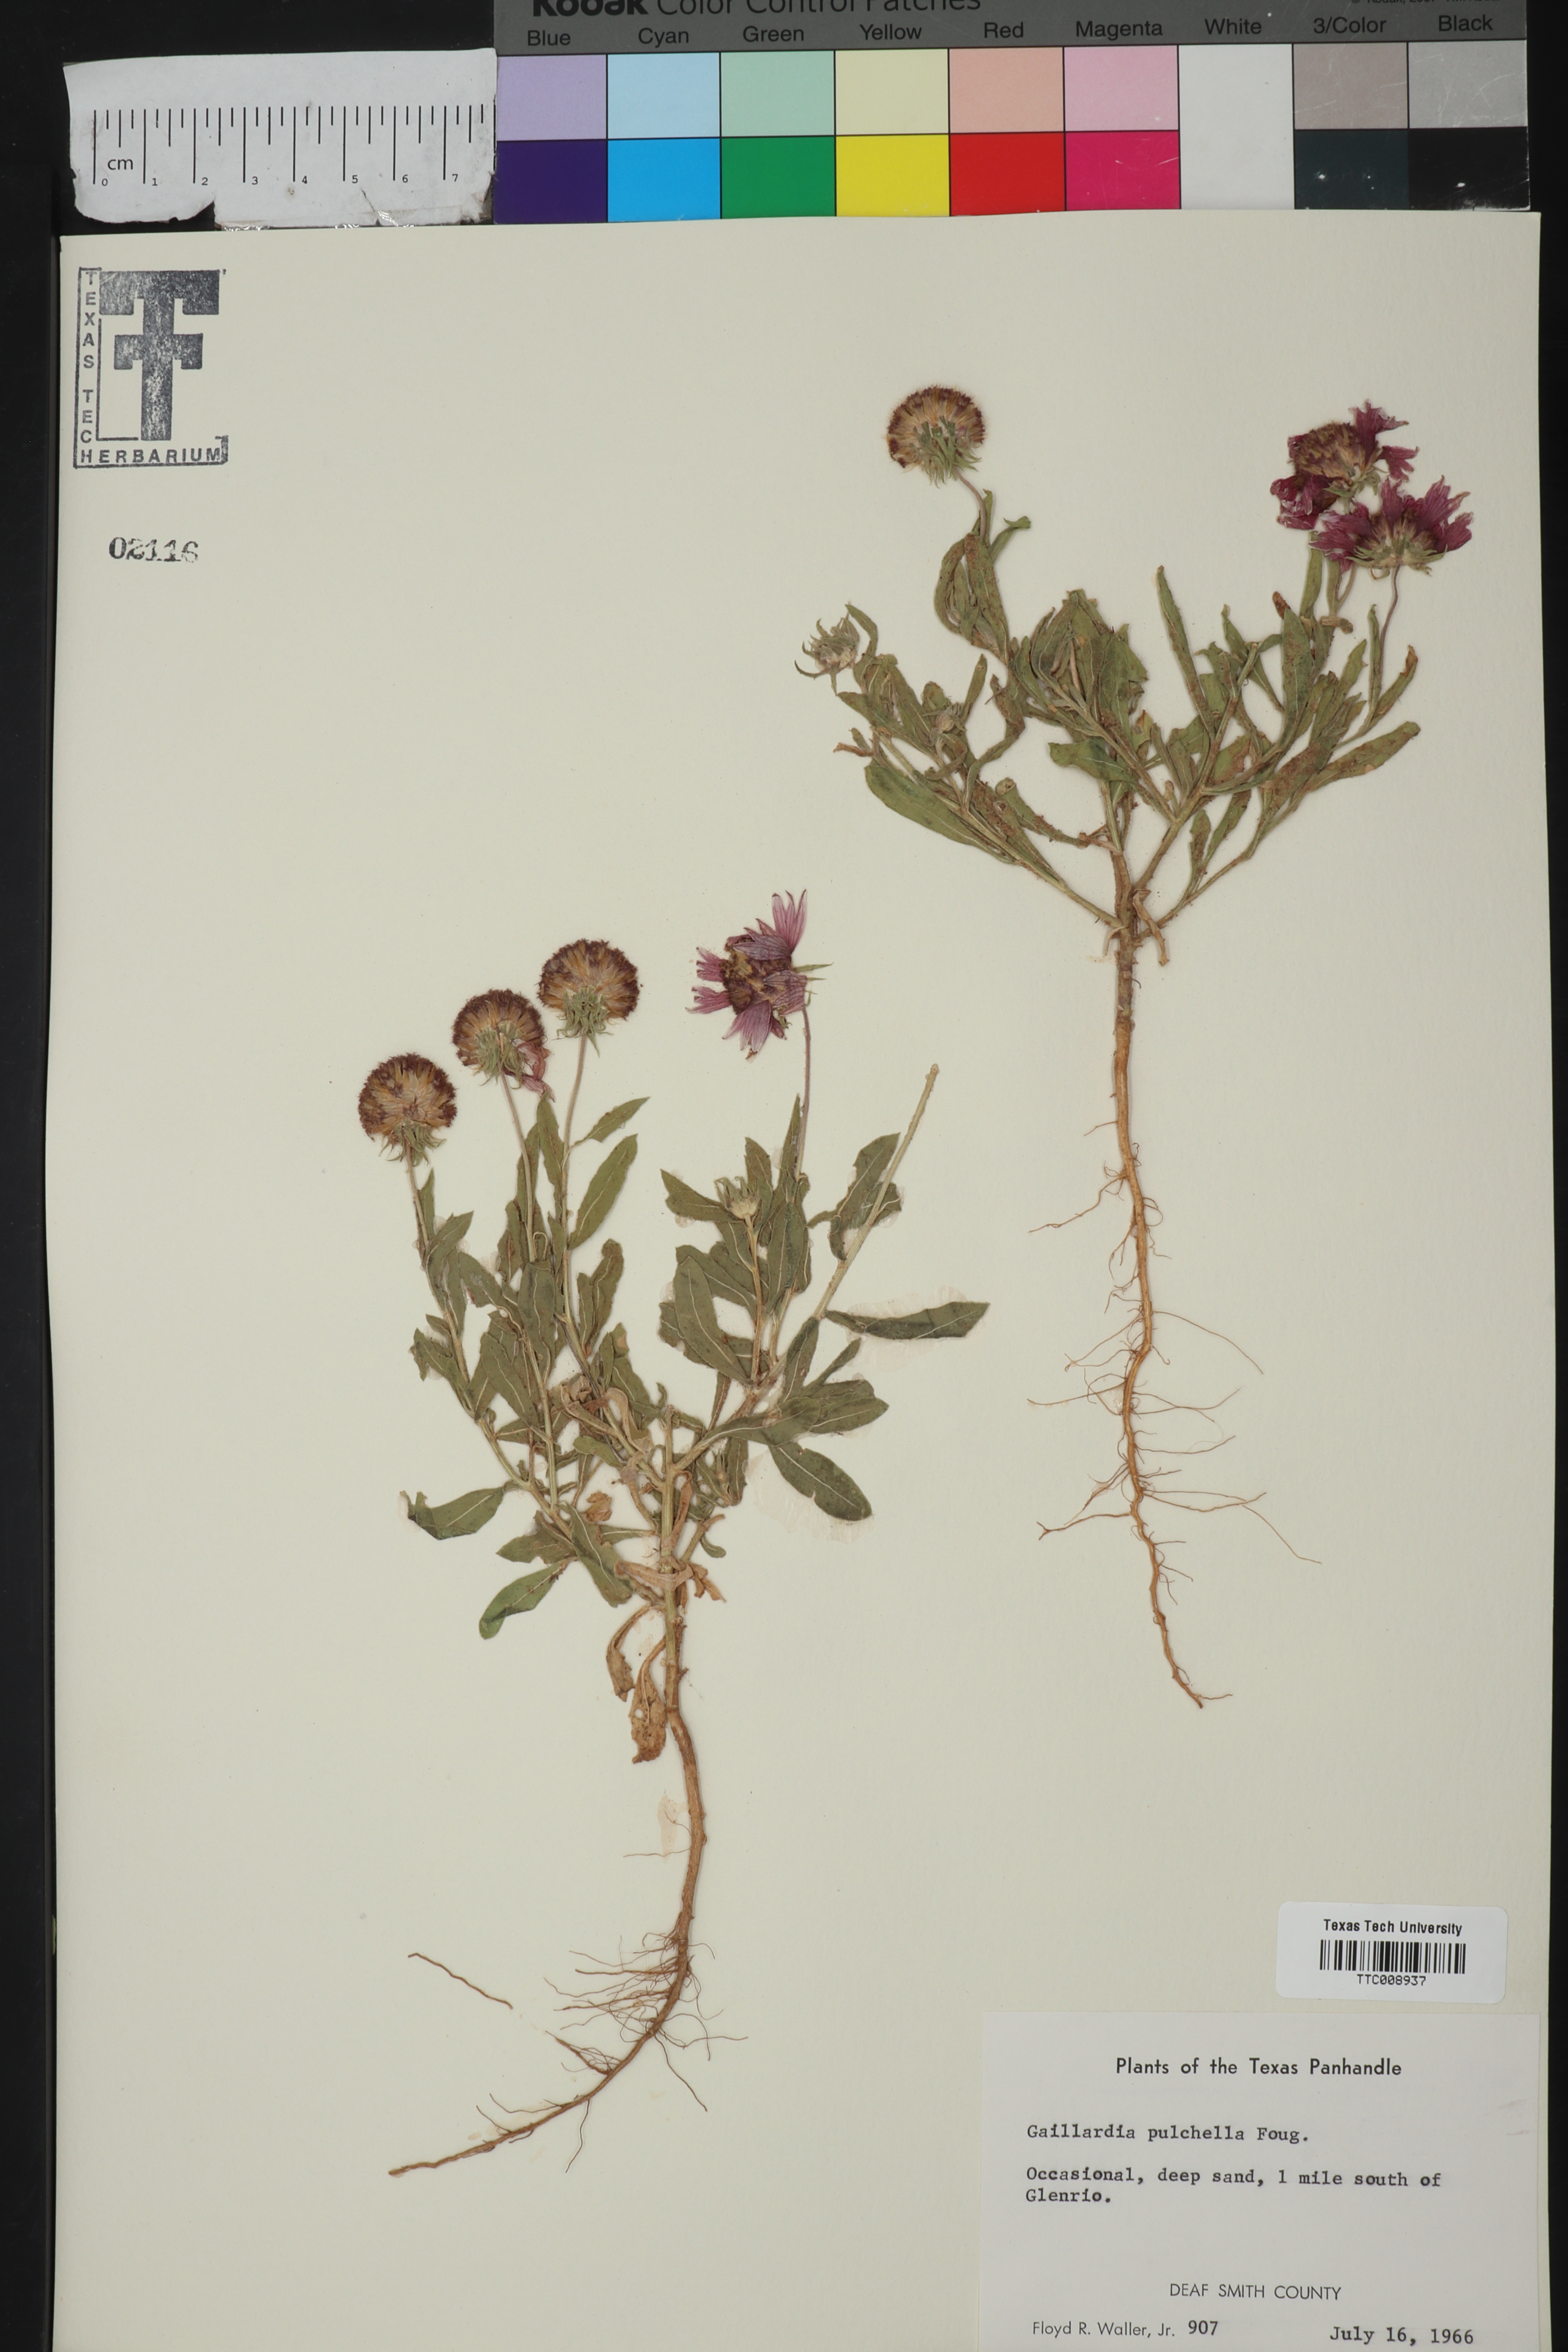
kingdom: Plantae
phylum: Tracheophyta
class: Magnoliopsida
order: Asterales
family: Asteraceae
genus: Gaillardia
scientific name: Gaillardia pulchella
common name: Firewheel
